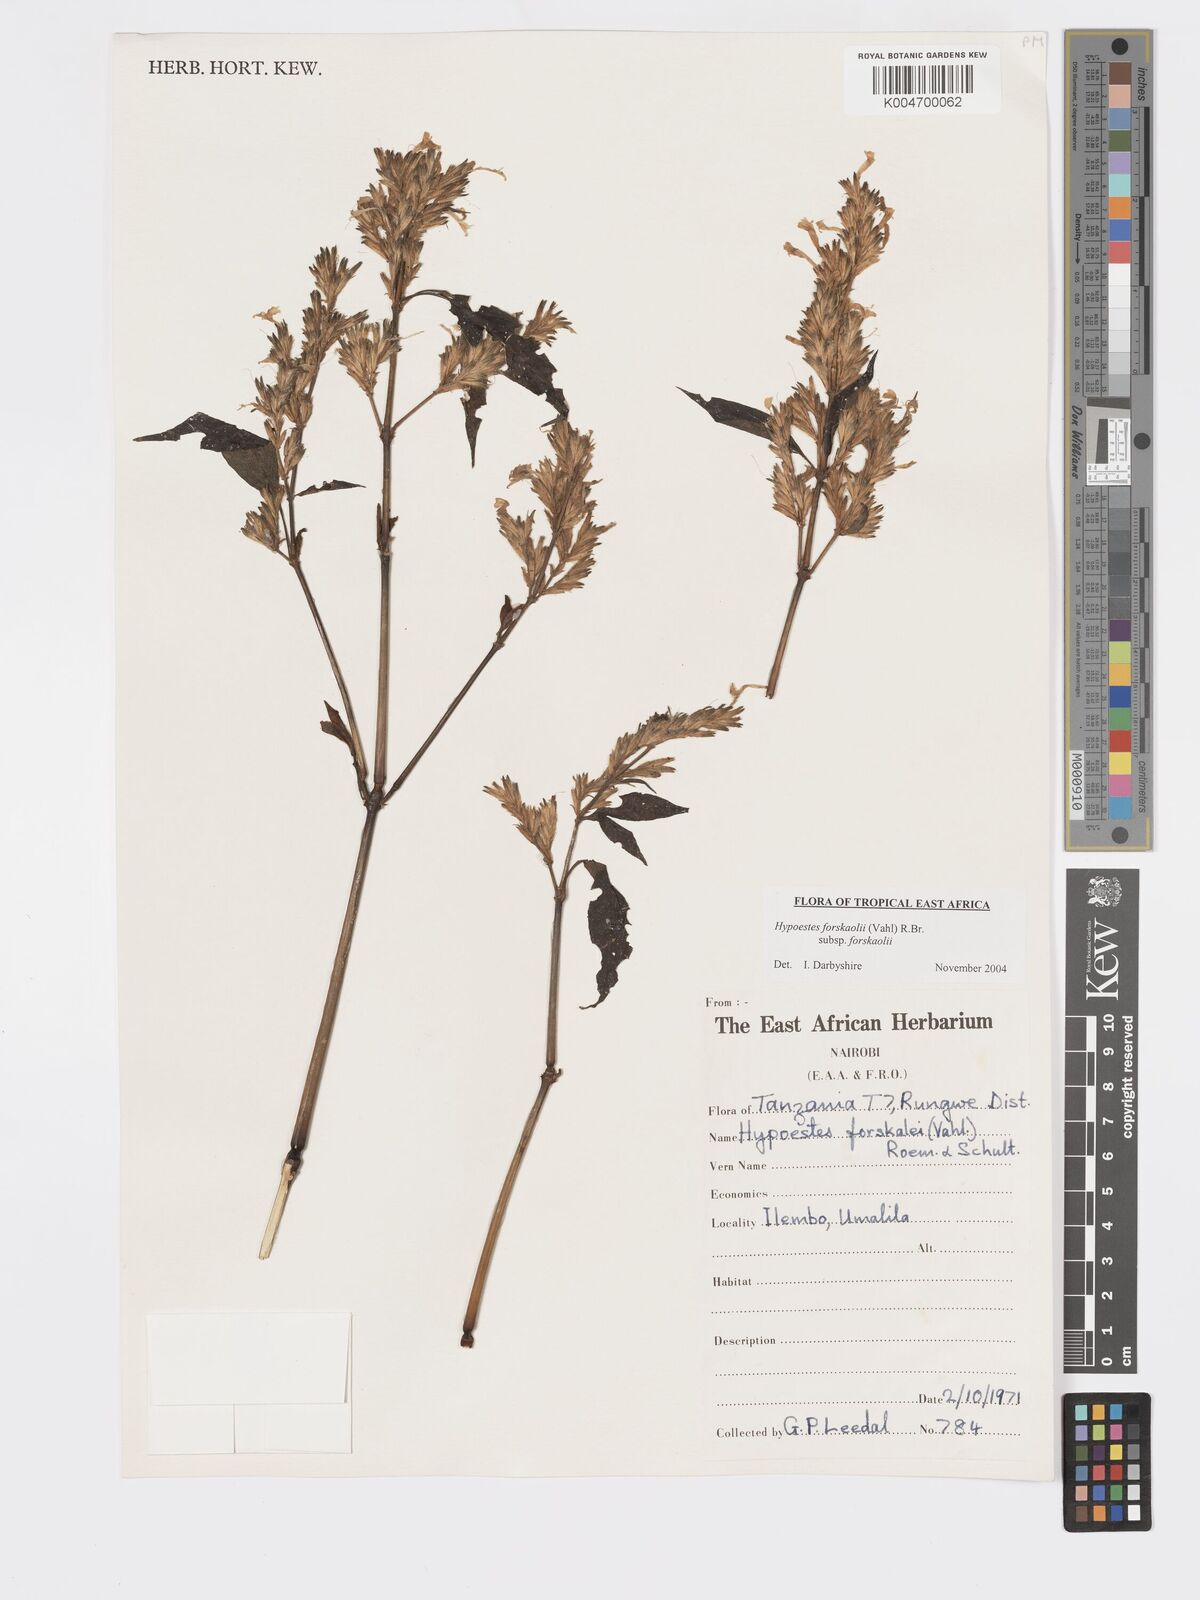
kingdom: Plantae
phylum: Tracheophyta
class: Magnoliopsida
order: Lamiales
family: Acanthaceae
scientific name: Acanthaceae
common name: Acanthaceae
